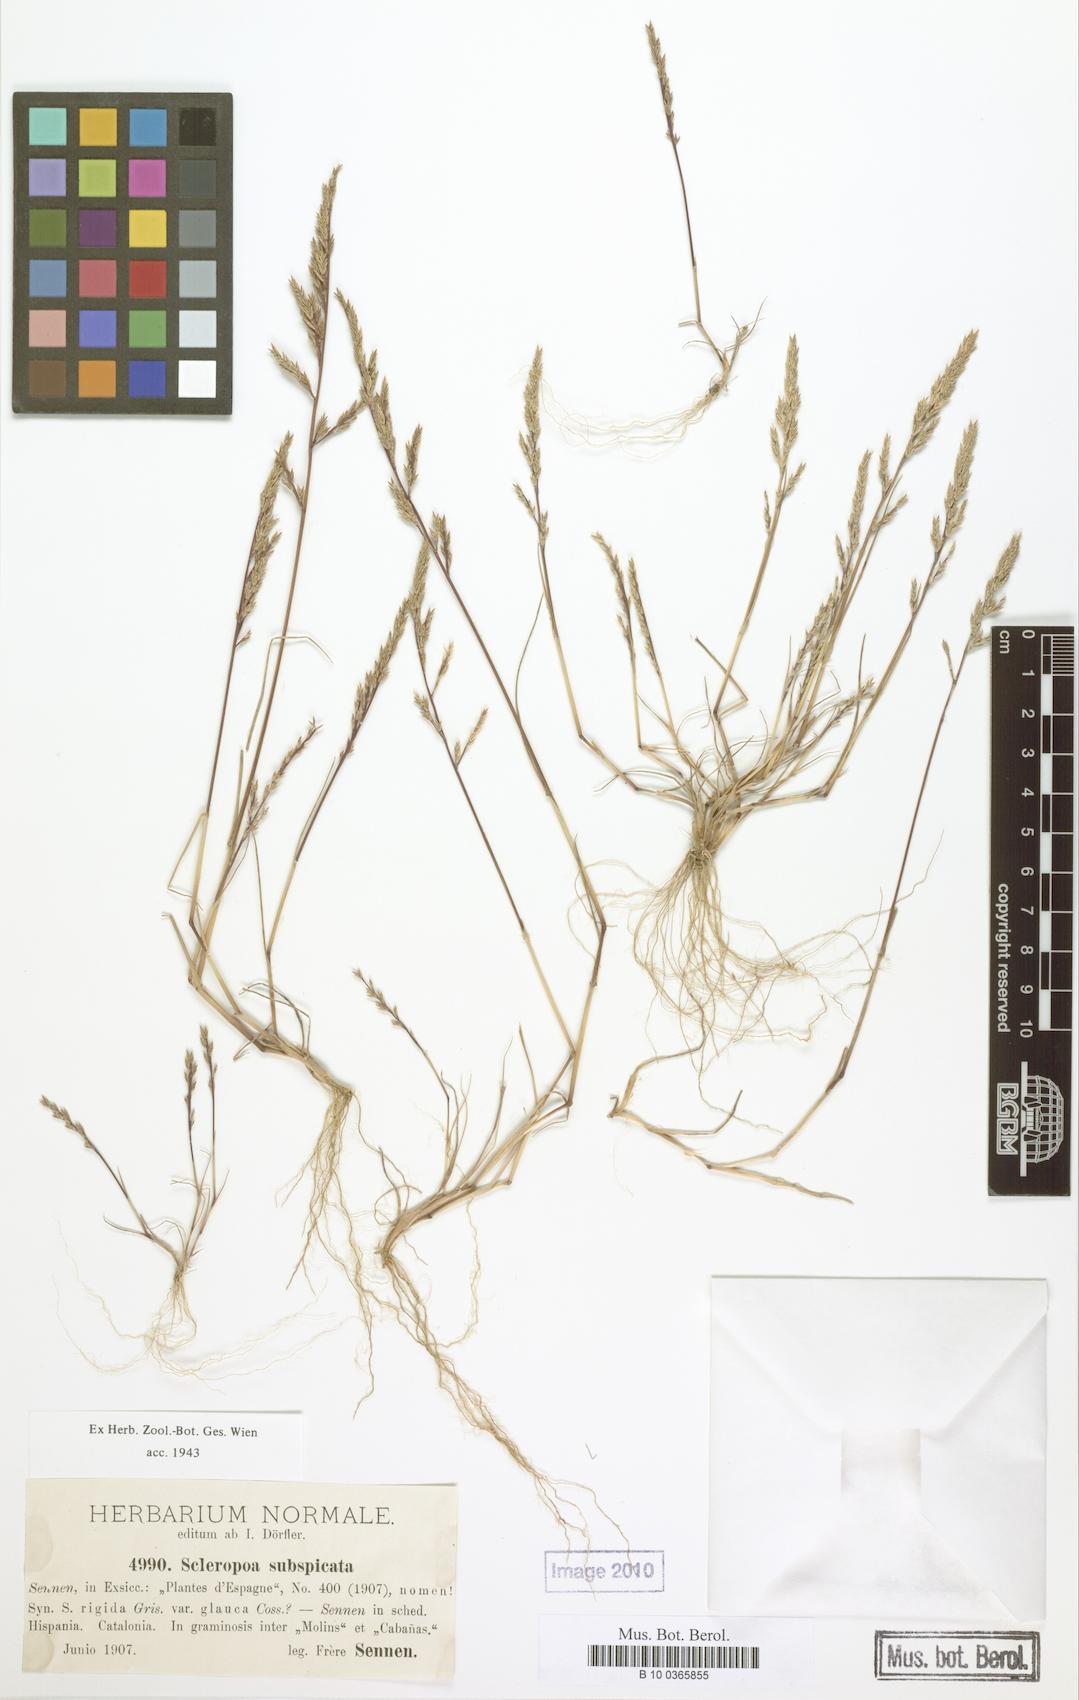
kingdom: Plantae
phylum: Tracheophyta
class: Liliopsida
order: Poales
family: Poaceae
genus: Catapodium
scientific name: Catapodium rigidum
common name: Fern-grass
